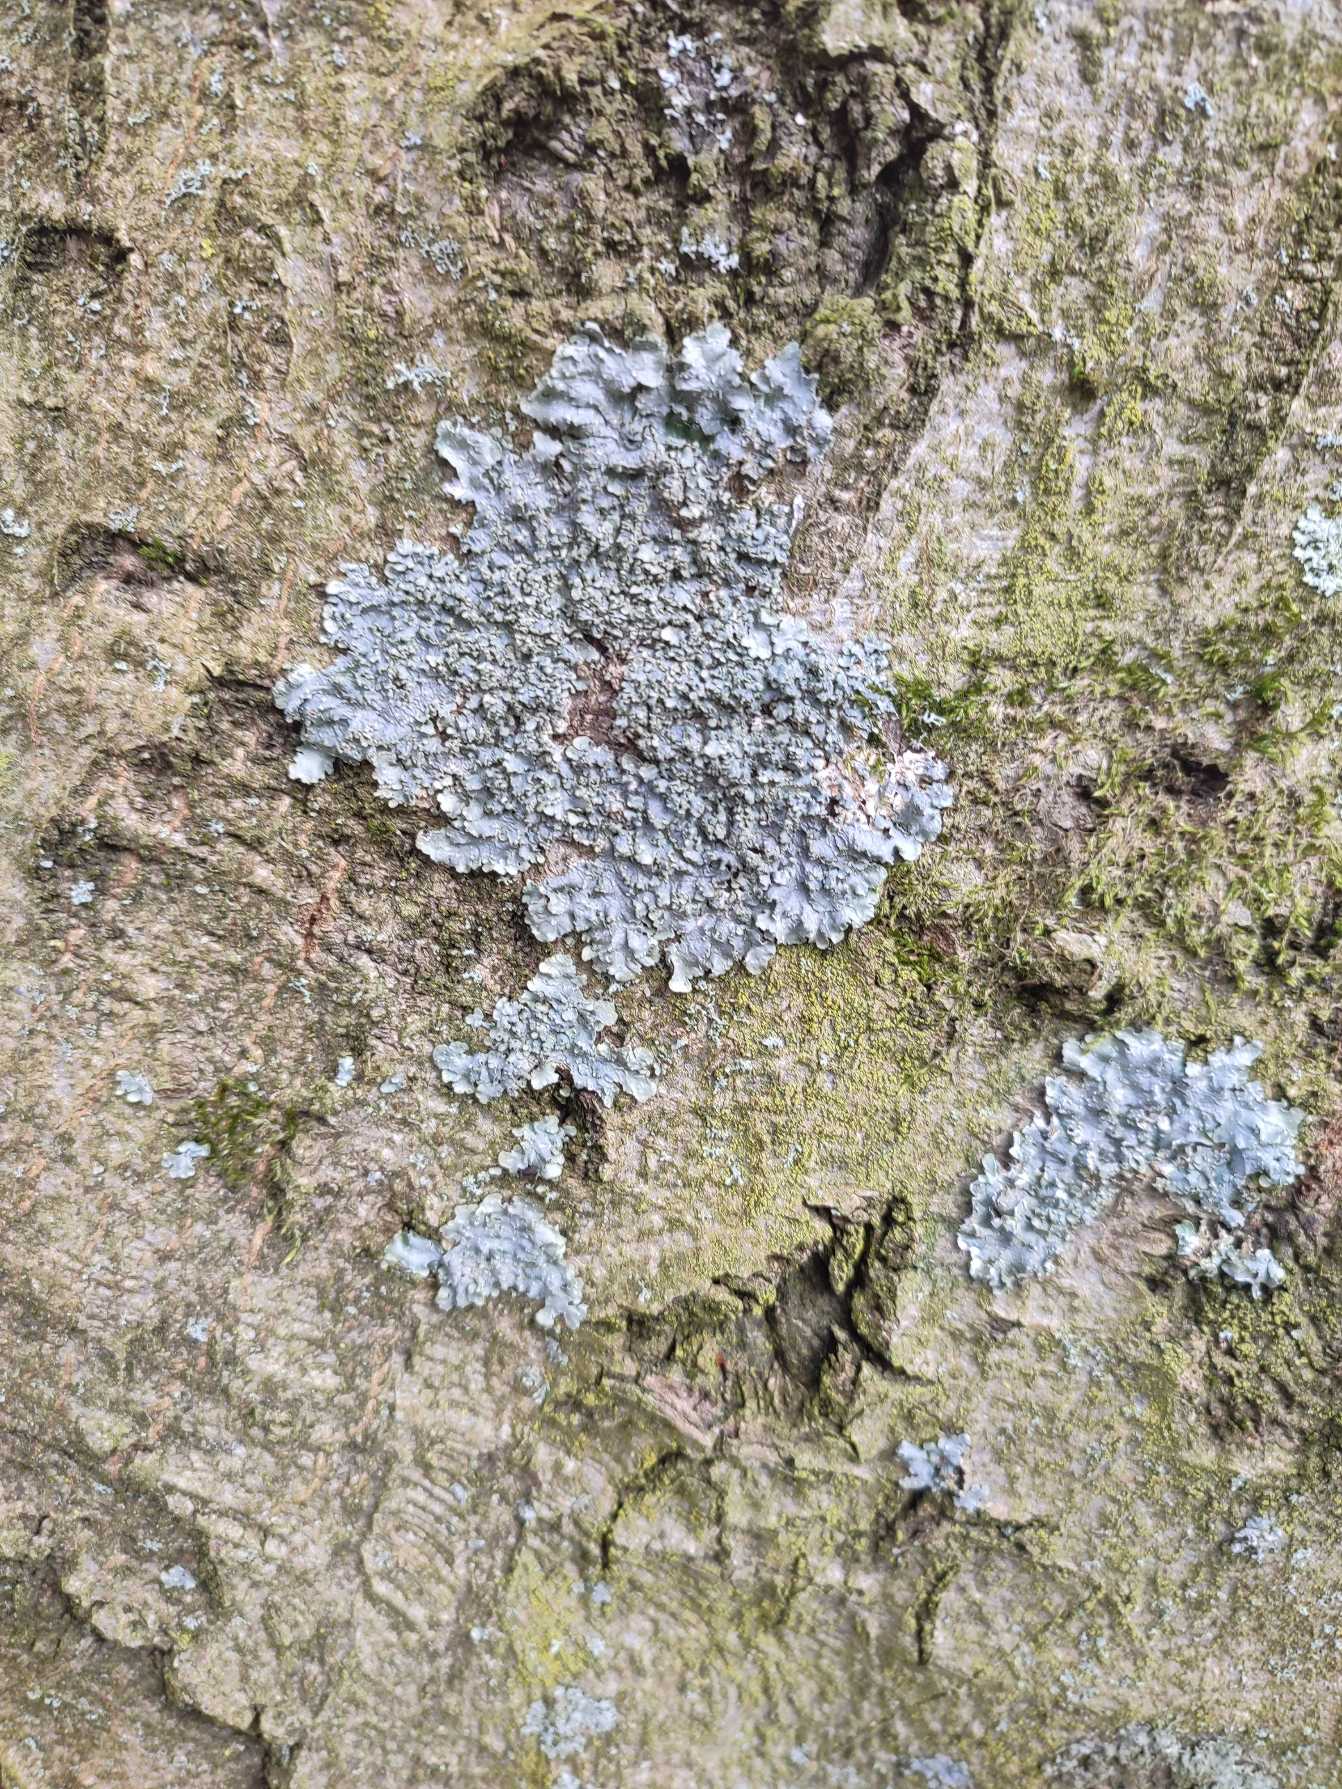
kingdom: Fungi
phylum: Ascomycota
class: Lecanoromycetes
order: Lecanorales
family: Parmeliaceae
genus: Parmelia
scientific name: Parmelia ernstiae
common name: Rimstift-skållav
